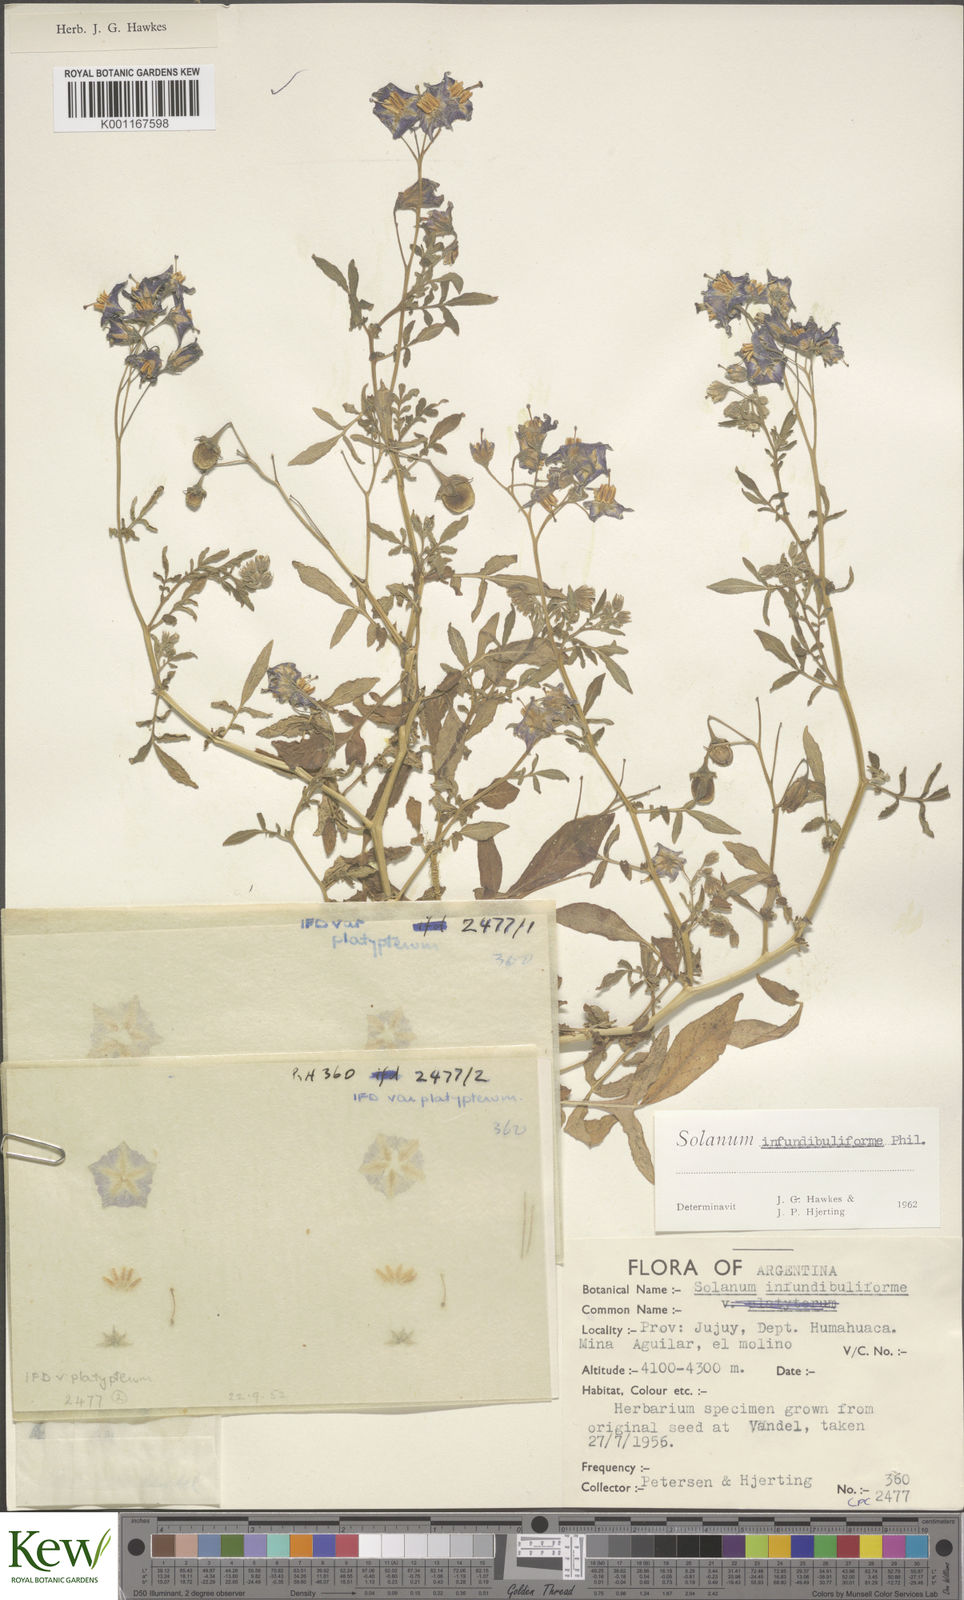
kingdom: Plantae
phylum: Tracheophyta
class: Magnoliopsida
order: Solanales
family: Solanaceae
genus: Solanum
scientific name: Solanum infundibuliforme
